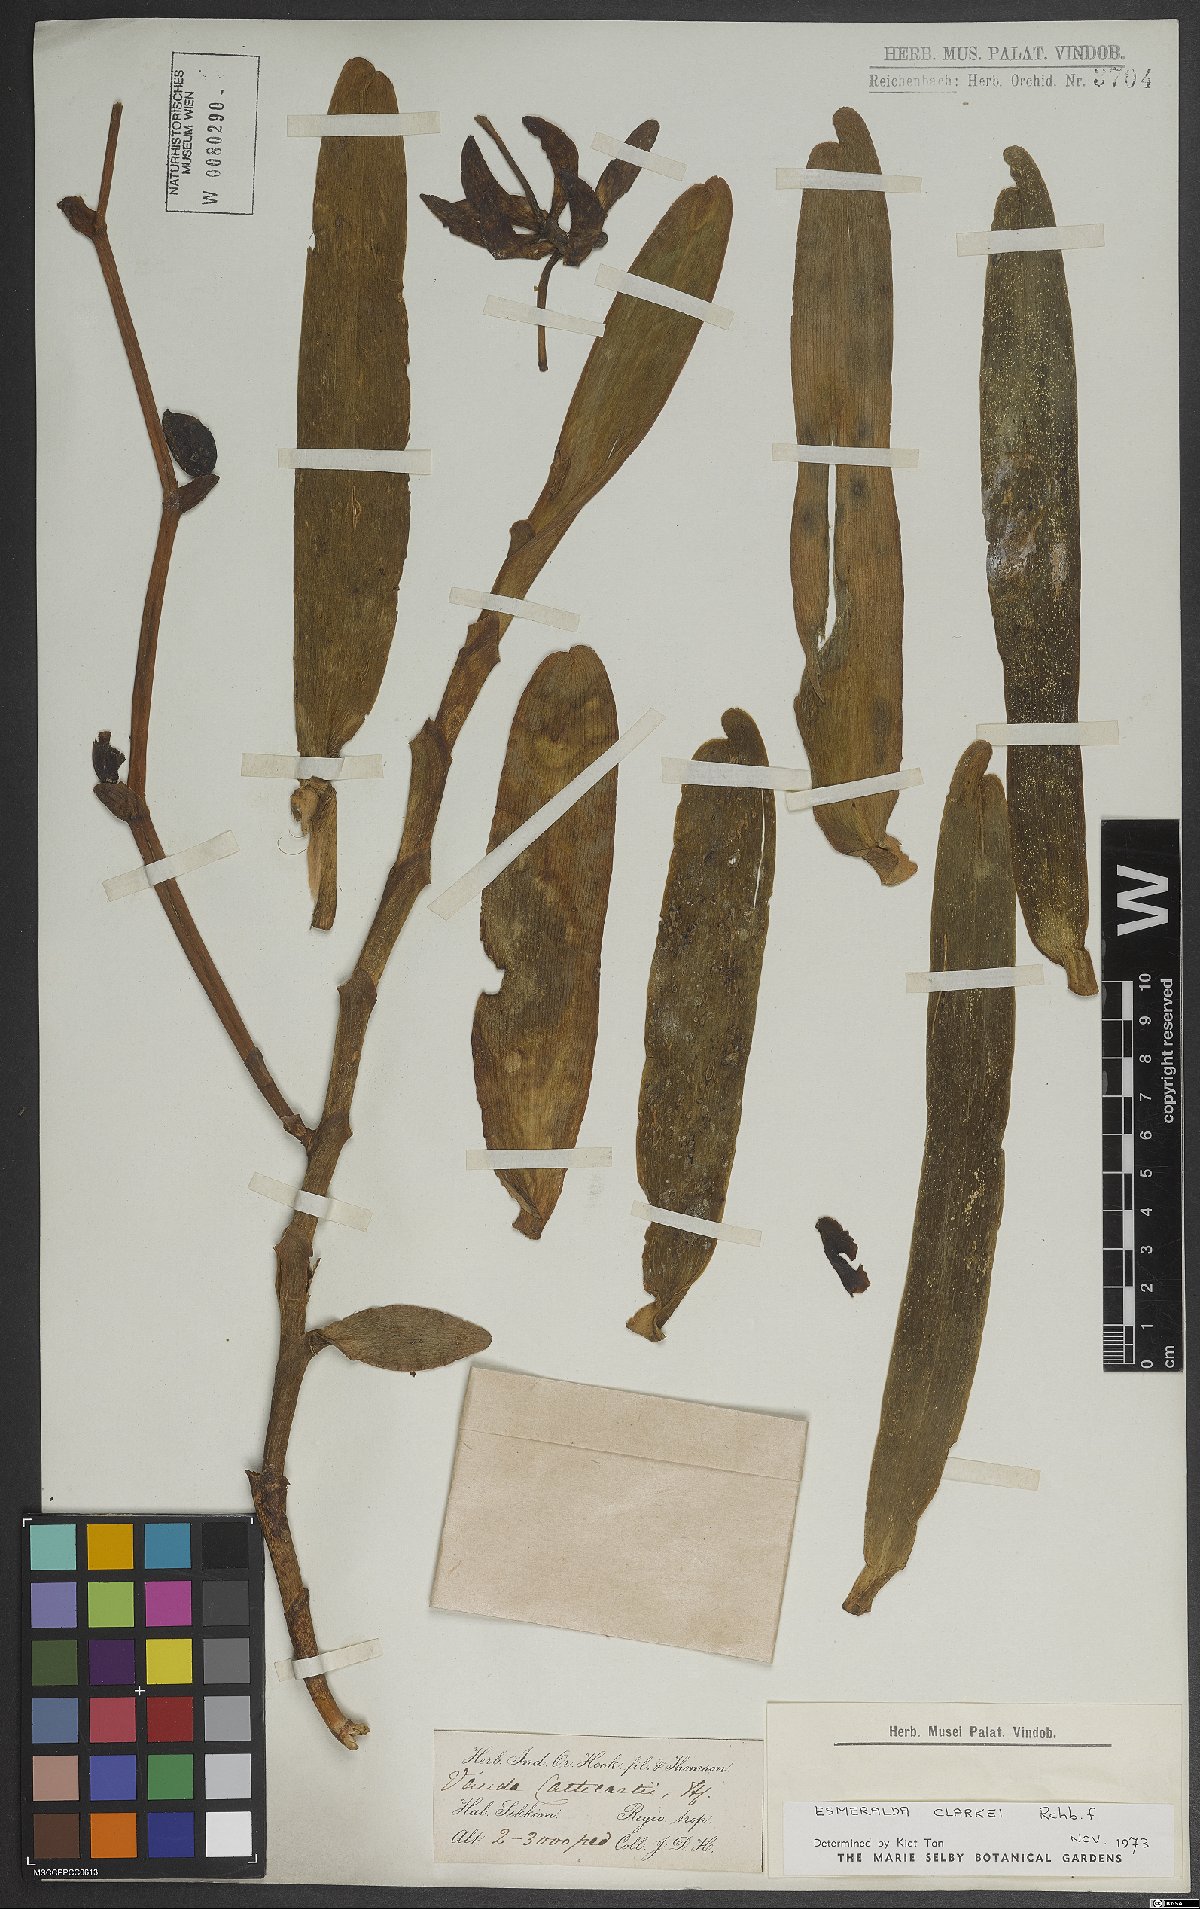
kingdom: Plantae
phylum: Tracheophyta
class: Liliopsida
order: Asparagales
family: Orchidaceae
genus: Arachnis
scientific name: Arachnis clarkei
